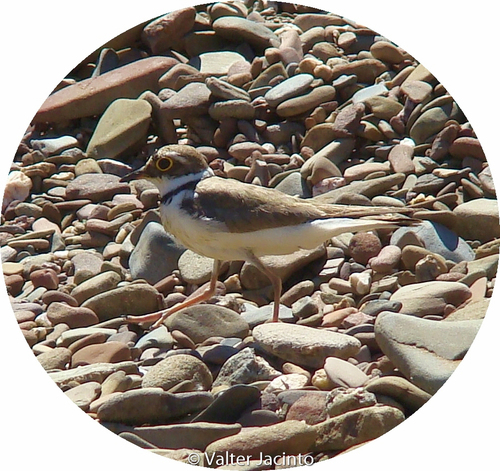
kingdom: Animalia
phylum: Chordata
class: Aves
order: Charadriiformes
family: Charadriidae
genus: Charadrius
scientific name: Charadrius dubius
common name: Little ringed plover
